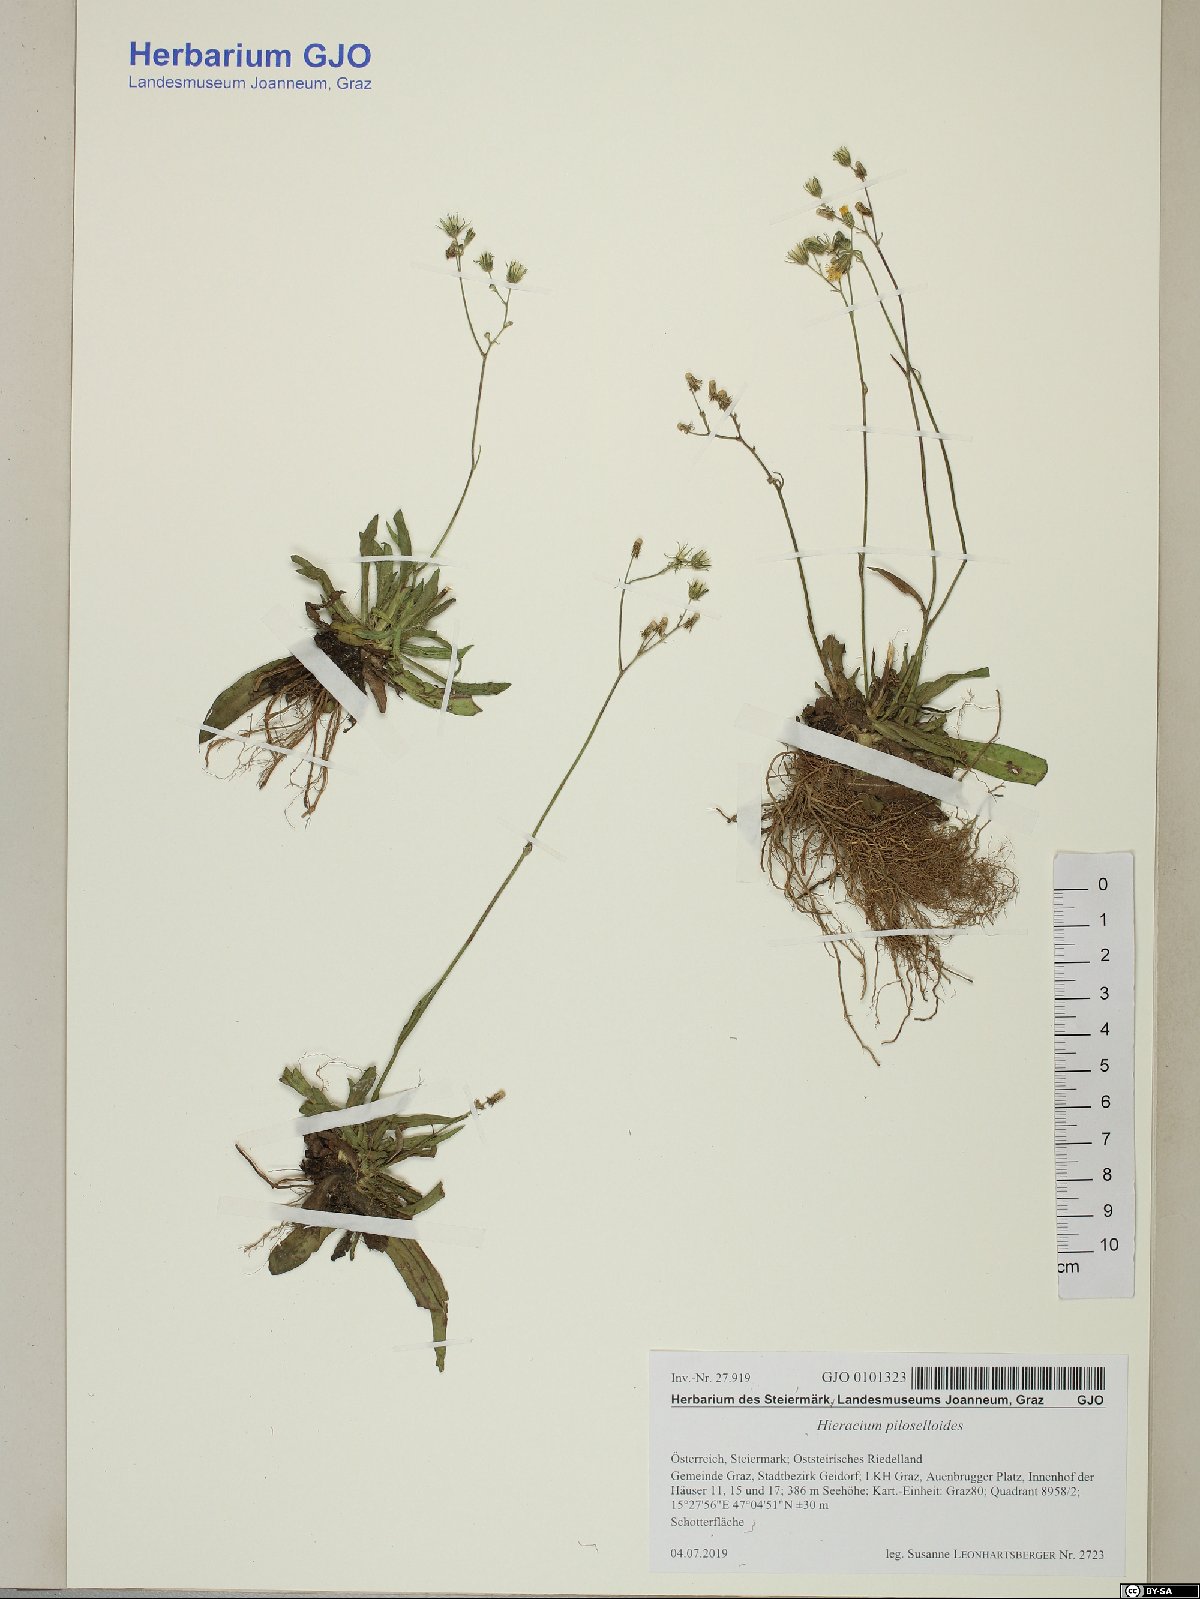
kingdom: Plantae
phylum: Tracheophyta
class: Magnoliopsida
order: Asterales
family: Asteraceae
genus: Pilosella
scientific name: Pilosella piloselloides
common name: Glaucous king-devil
